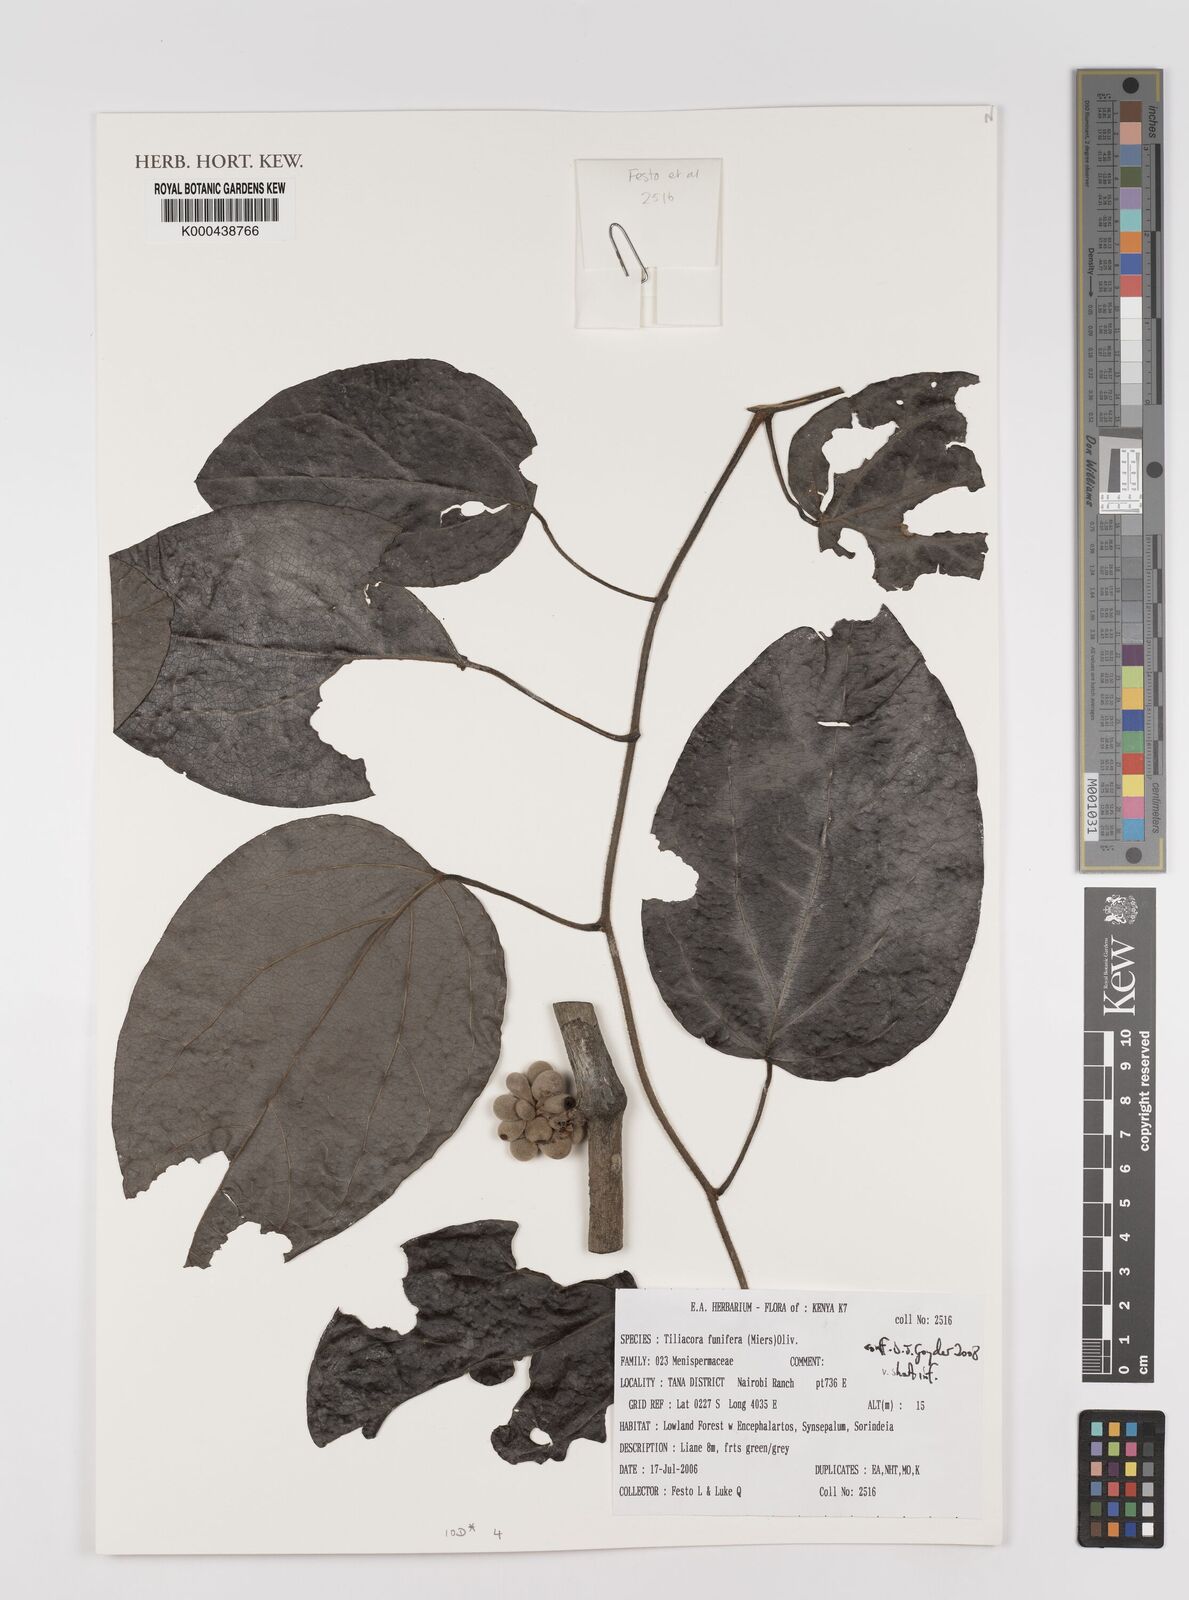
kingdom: Plantae
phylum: Tracheophyta
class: Magnoliopsida
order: Ranunculales
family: Menispermaceae
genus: Tiliacora
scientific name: Tiliacora funifera
